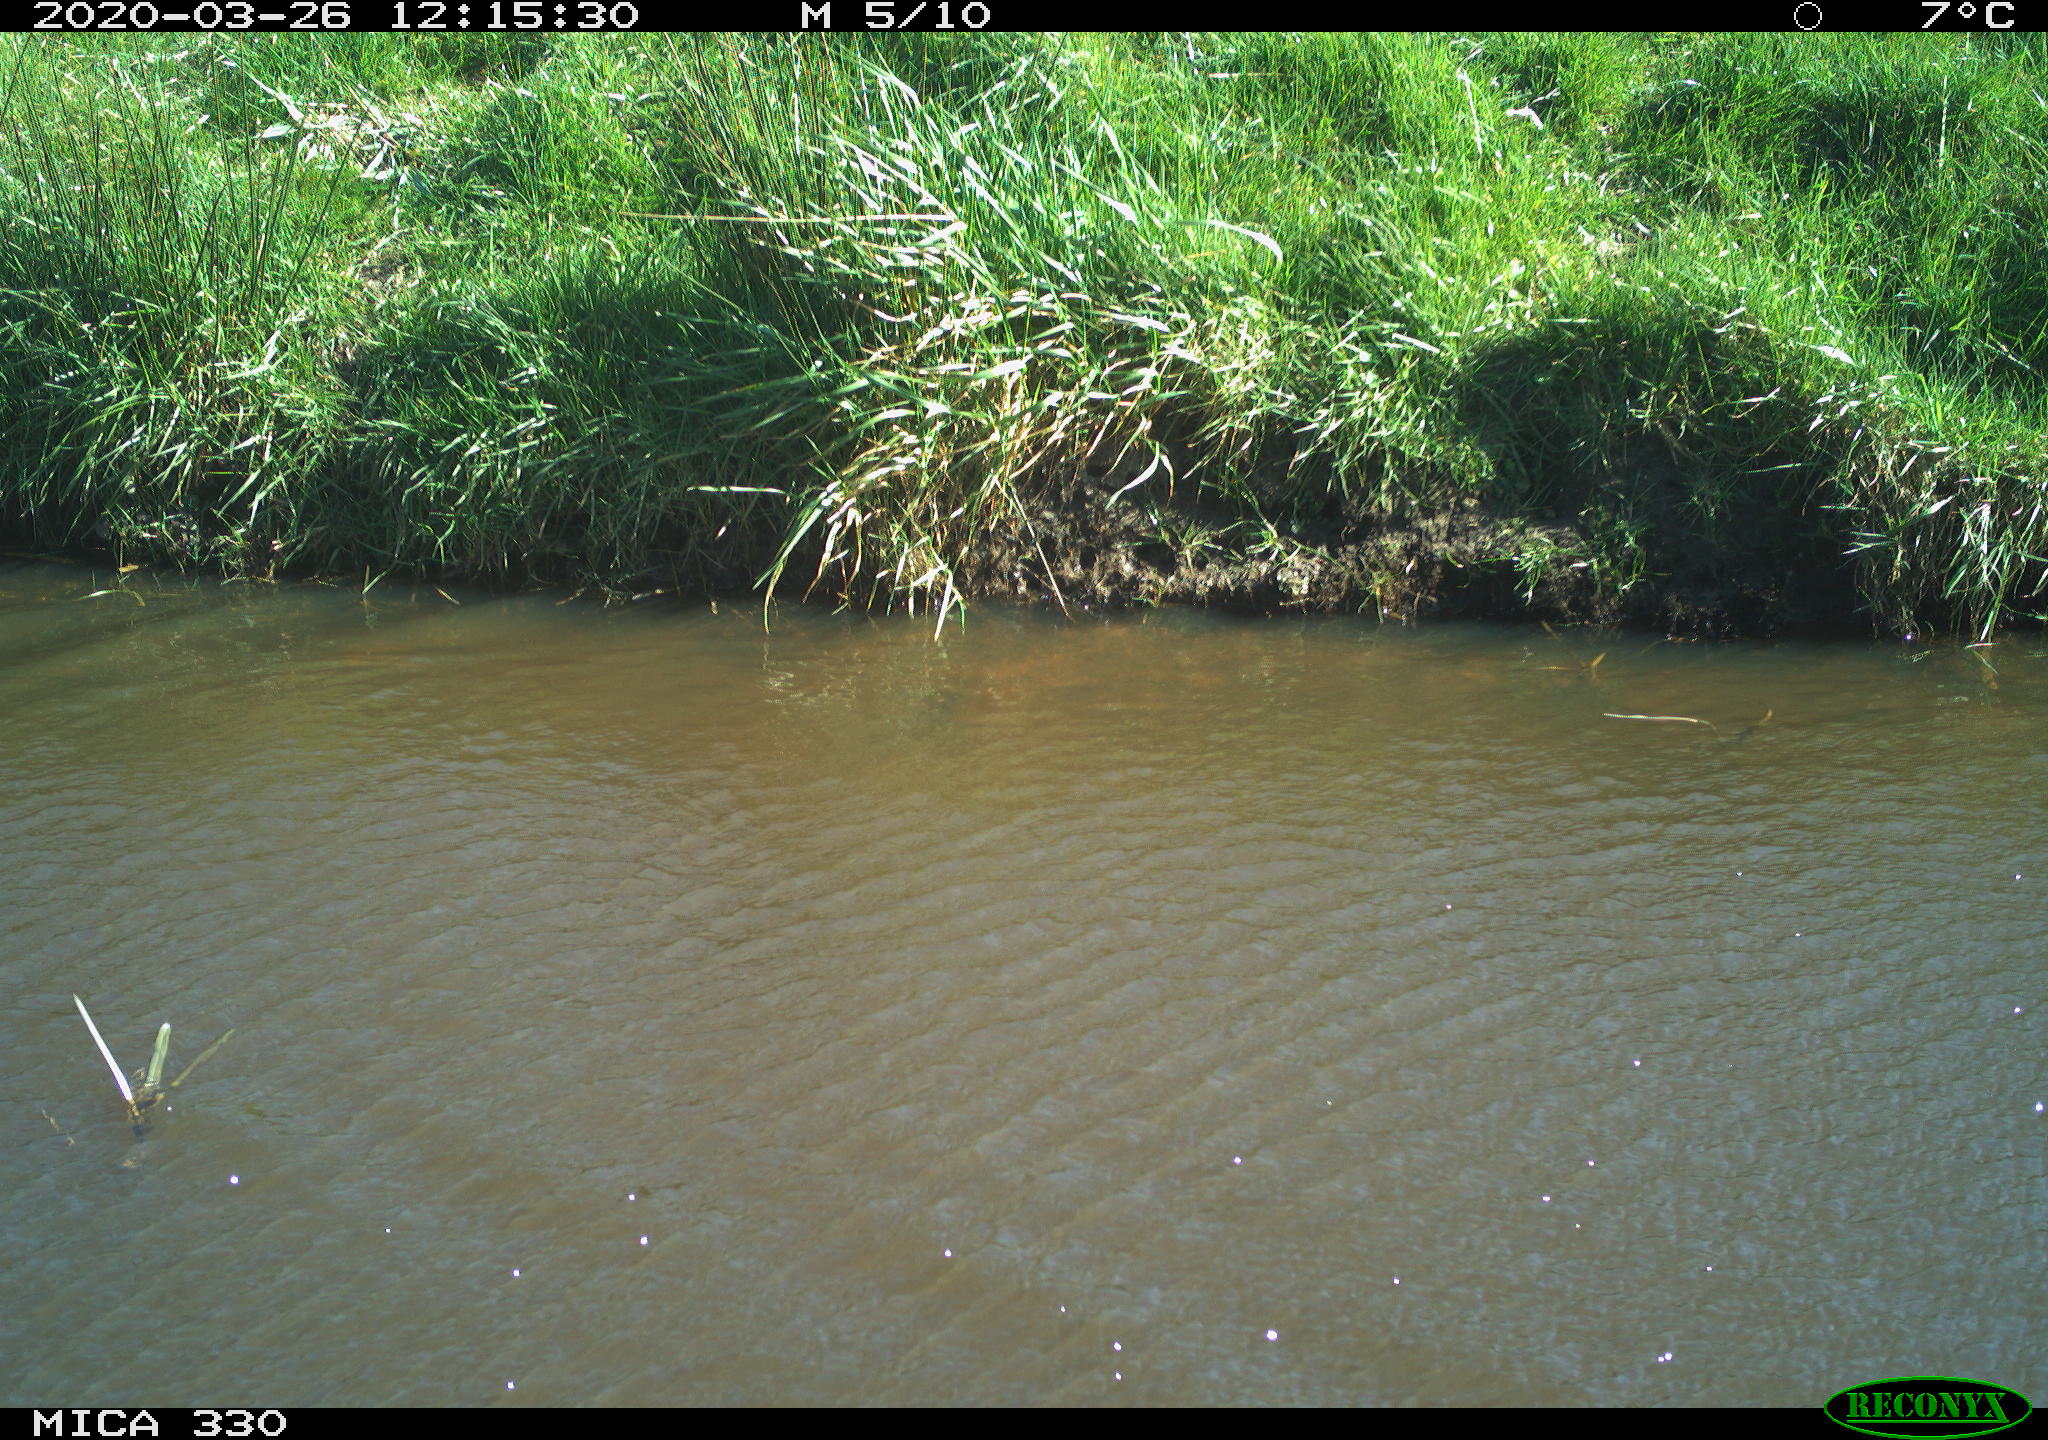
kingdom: Animalia
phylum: Chordata
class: Aves
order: Anseriformes
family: Anatidae
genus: Anas
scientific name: Anas platyrhynchos
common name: Mallard
